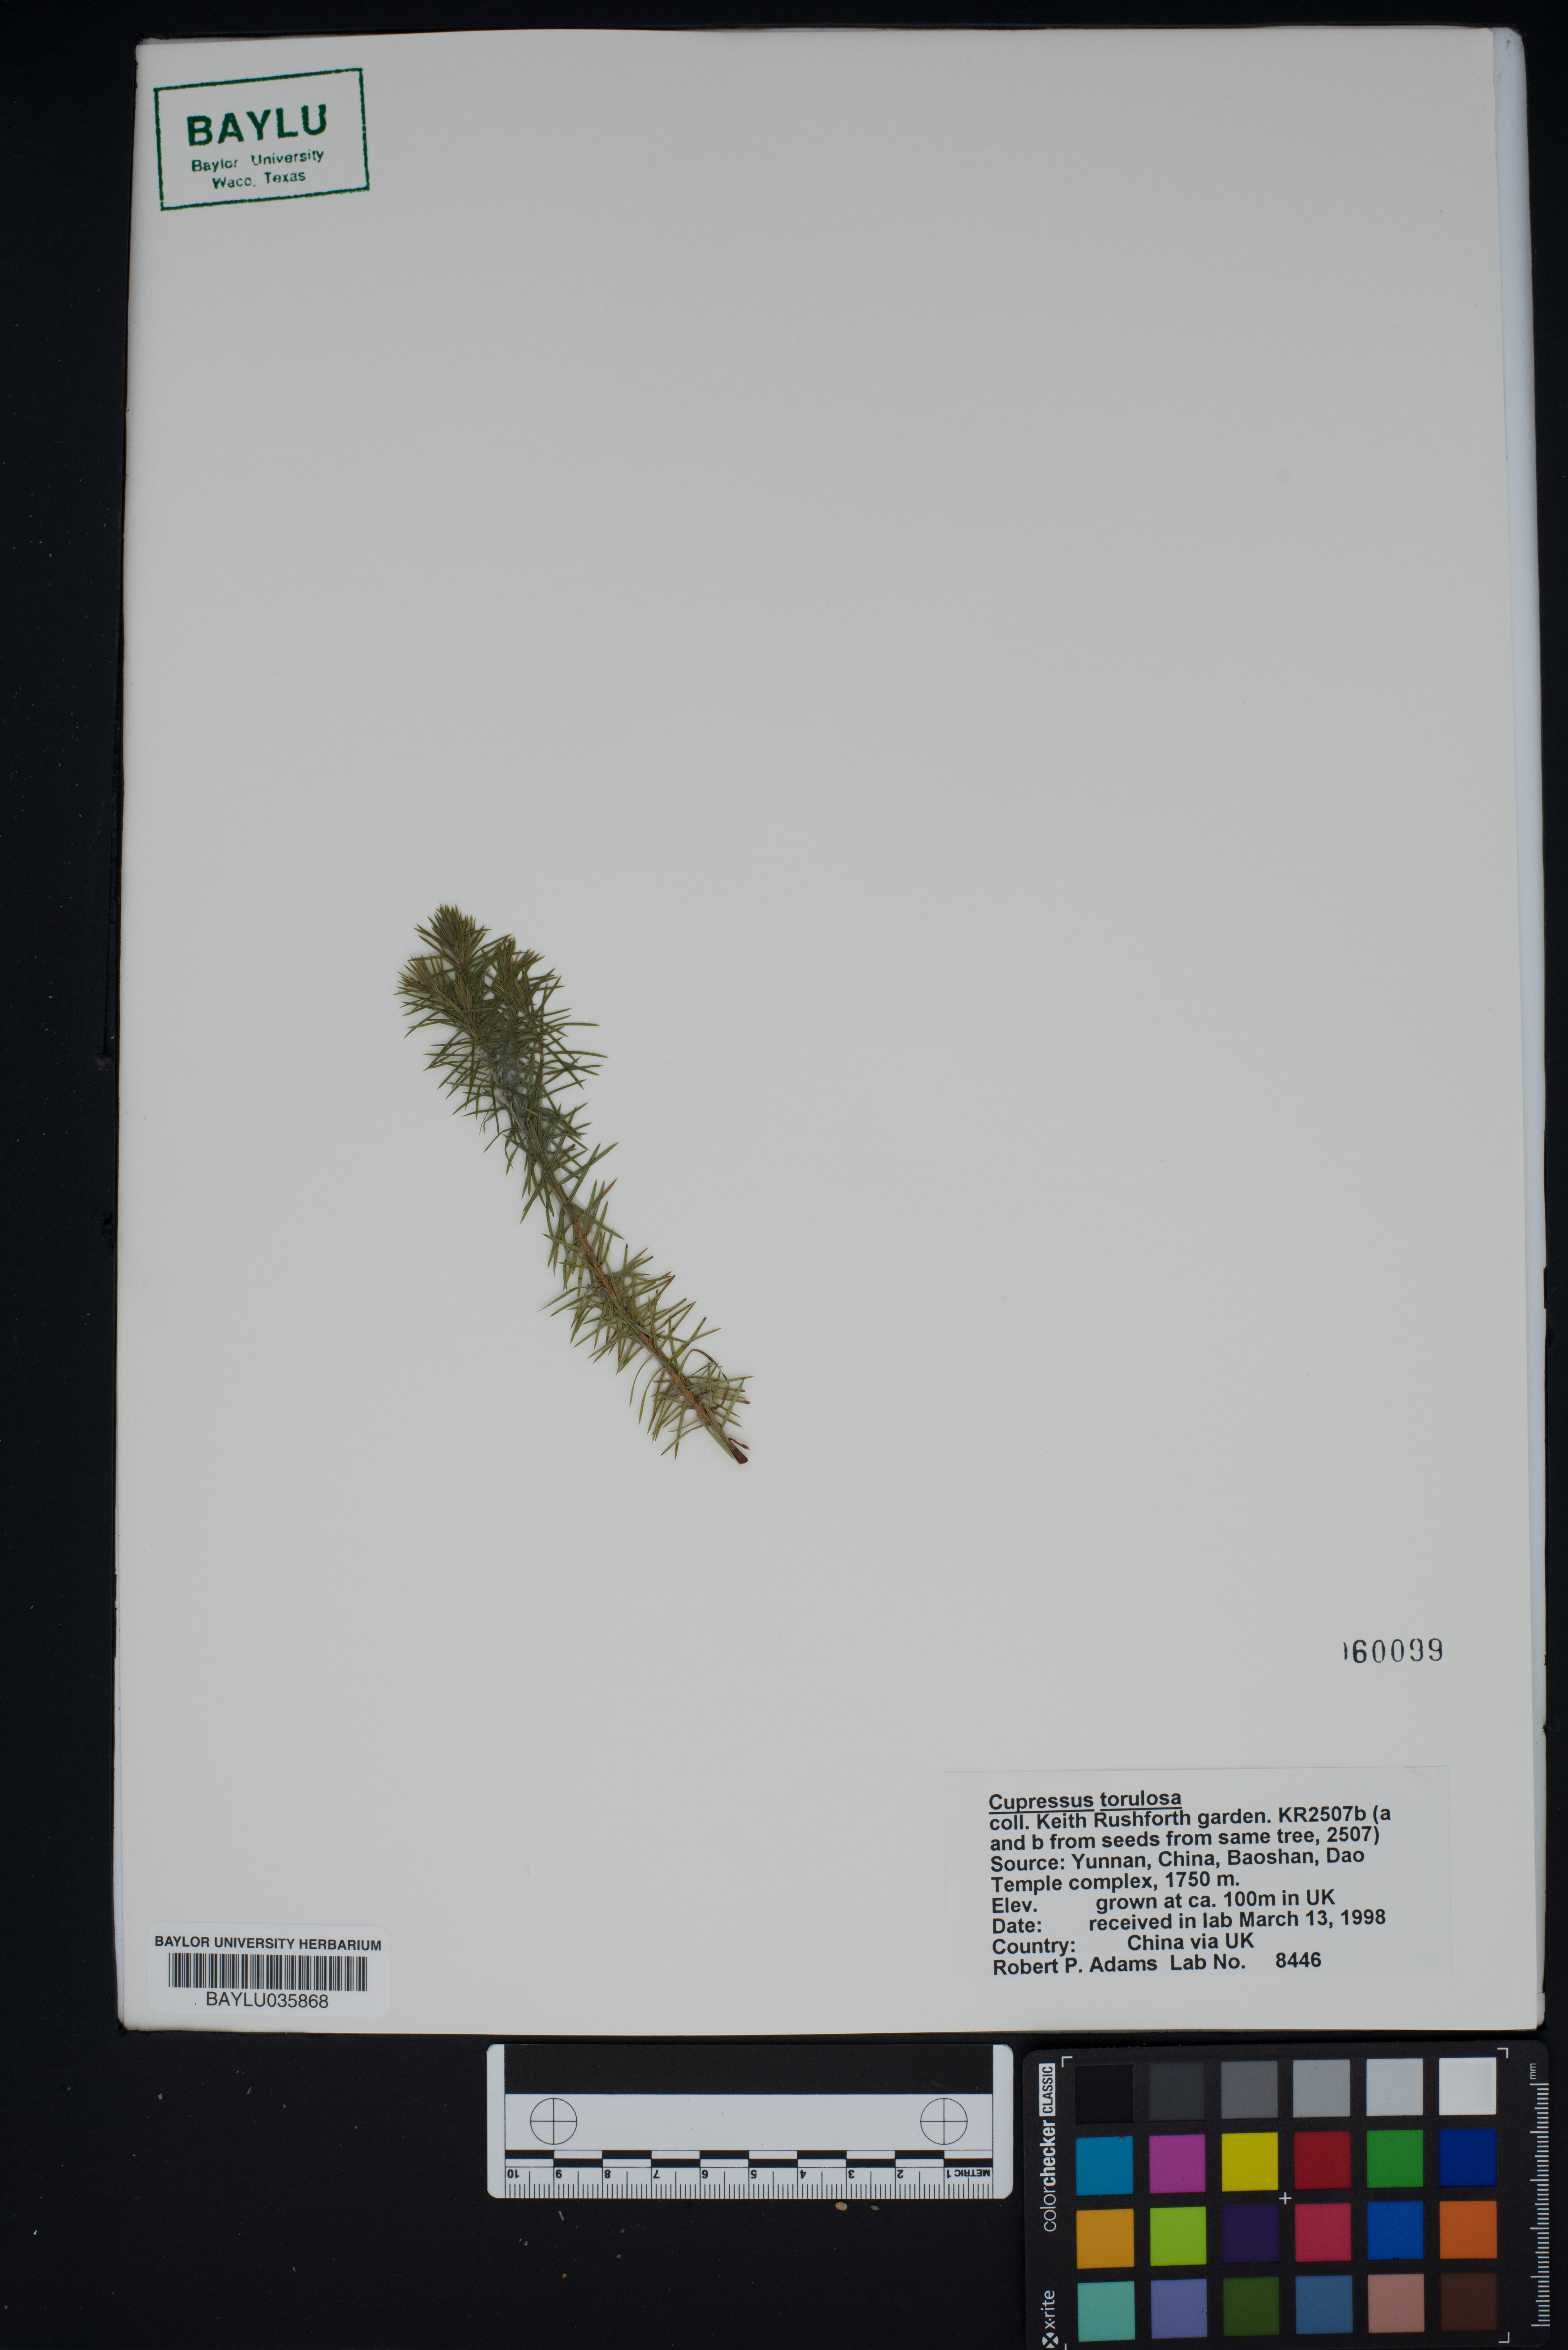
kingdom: Plantae
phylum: Tracheophyta
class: Pinopsida
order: Pinales
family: Cupressaceae
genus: Cupressus
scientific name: Cupressus torulosa
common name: Himalayan cypress
